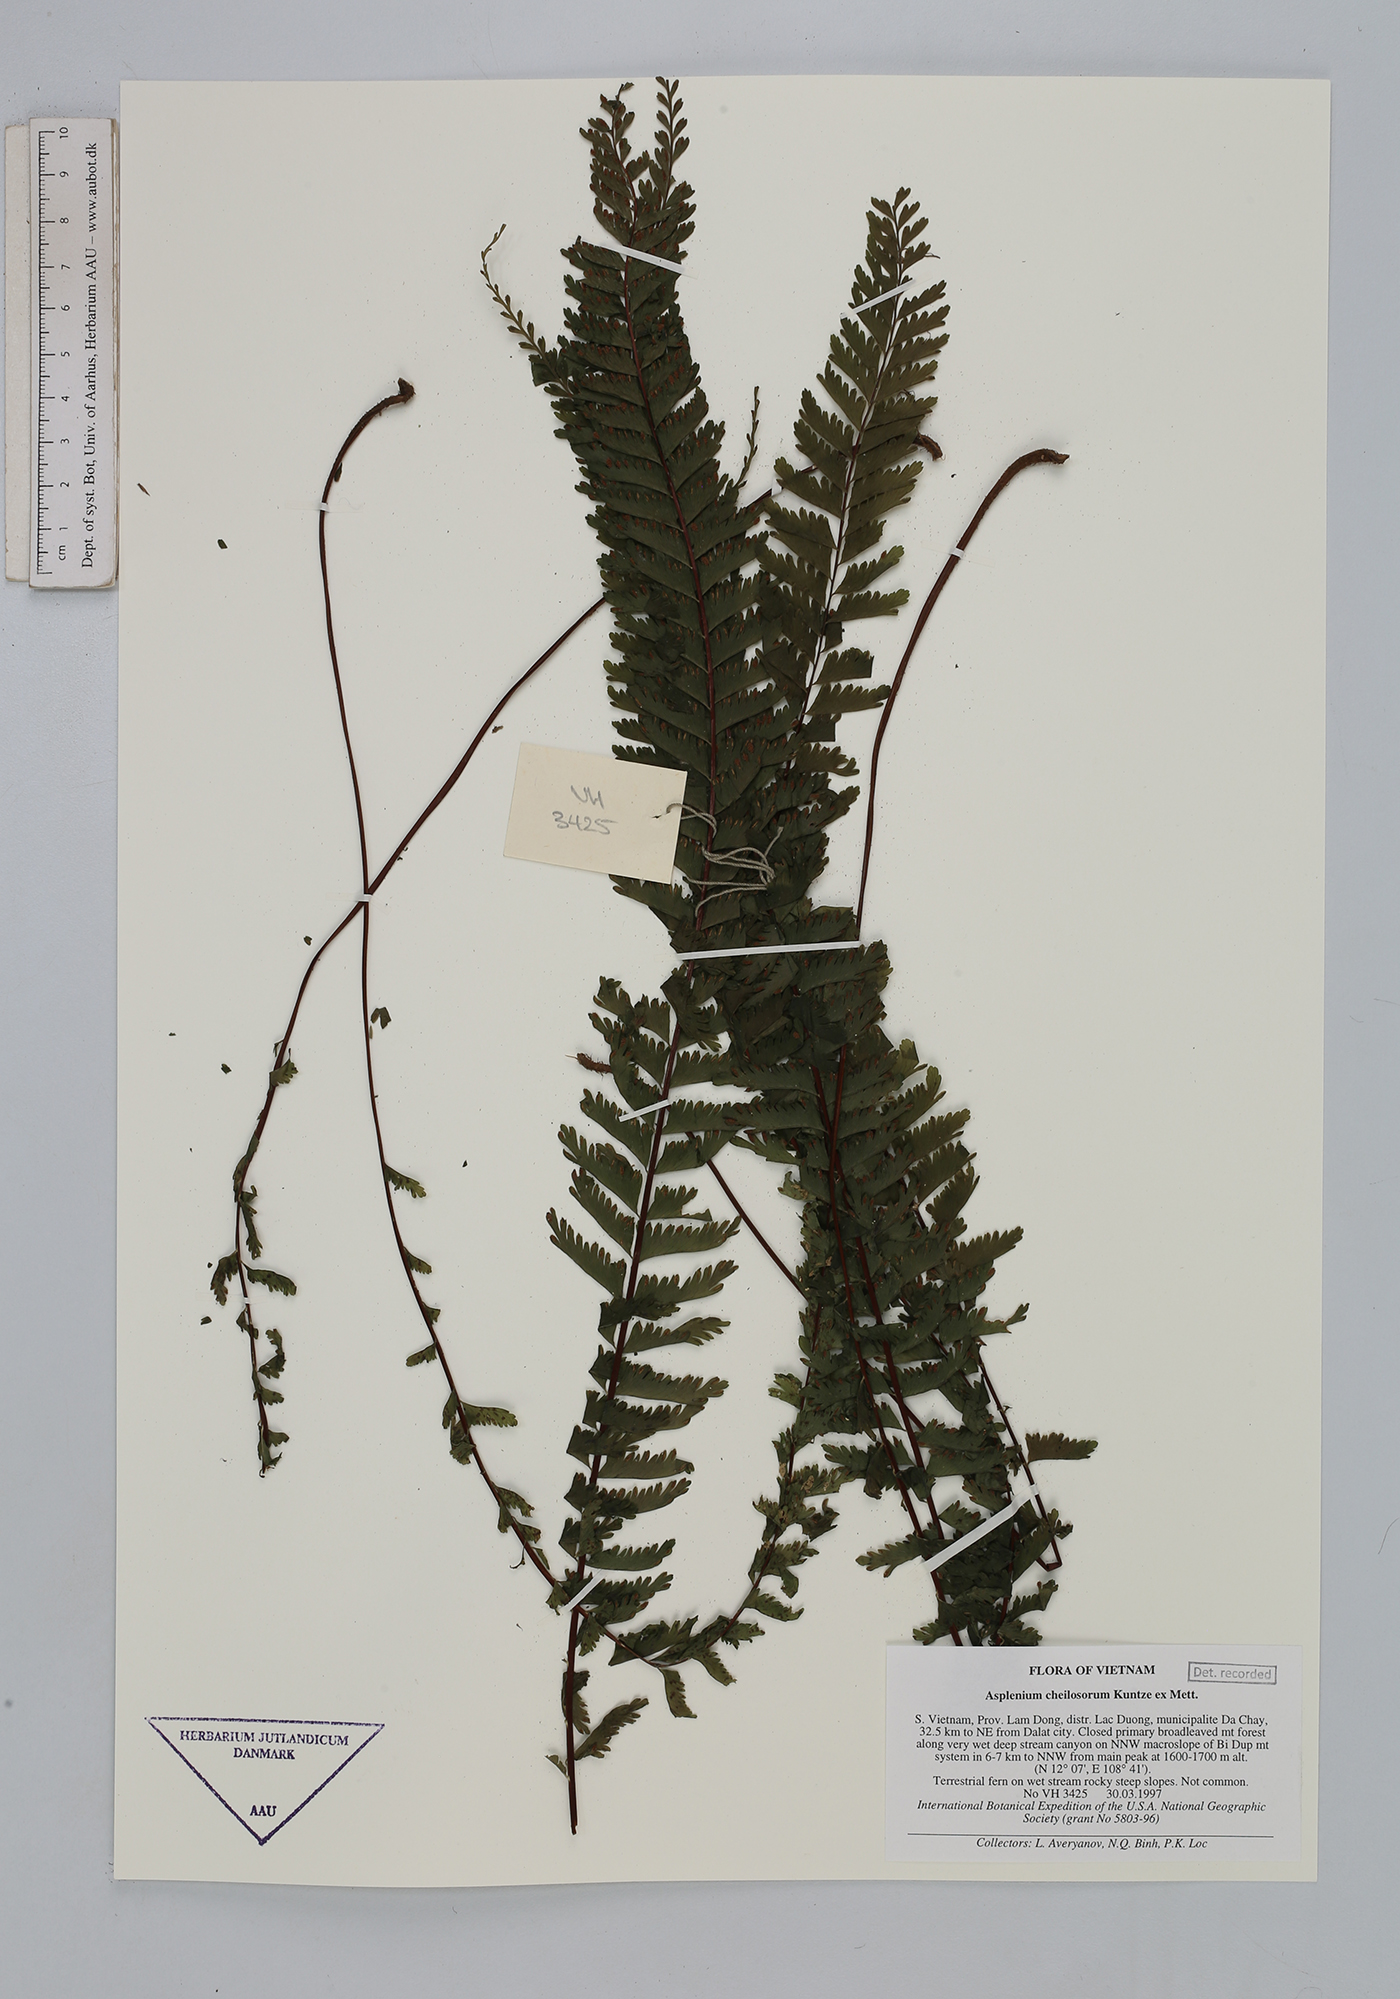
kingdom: Plantae
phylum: Tracheophyta
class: Polypodiopsida
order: Polypodiales
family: Aspleniaceae
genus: Hymenasplenium
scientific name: Hymenasplenium cheilosorum
